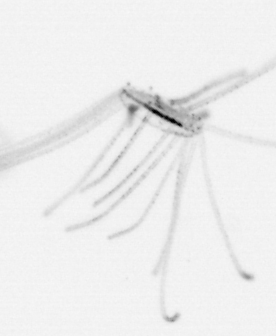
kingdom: Animalia
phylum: Cnidaria
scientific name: Cnidaria
